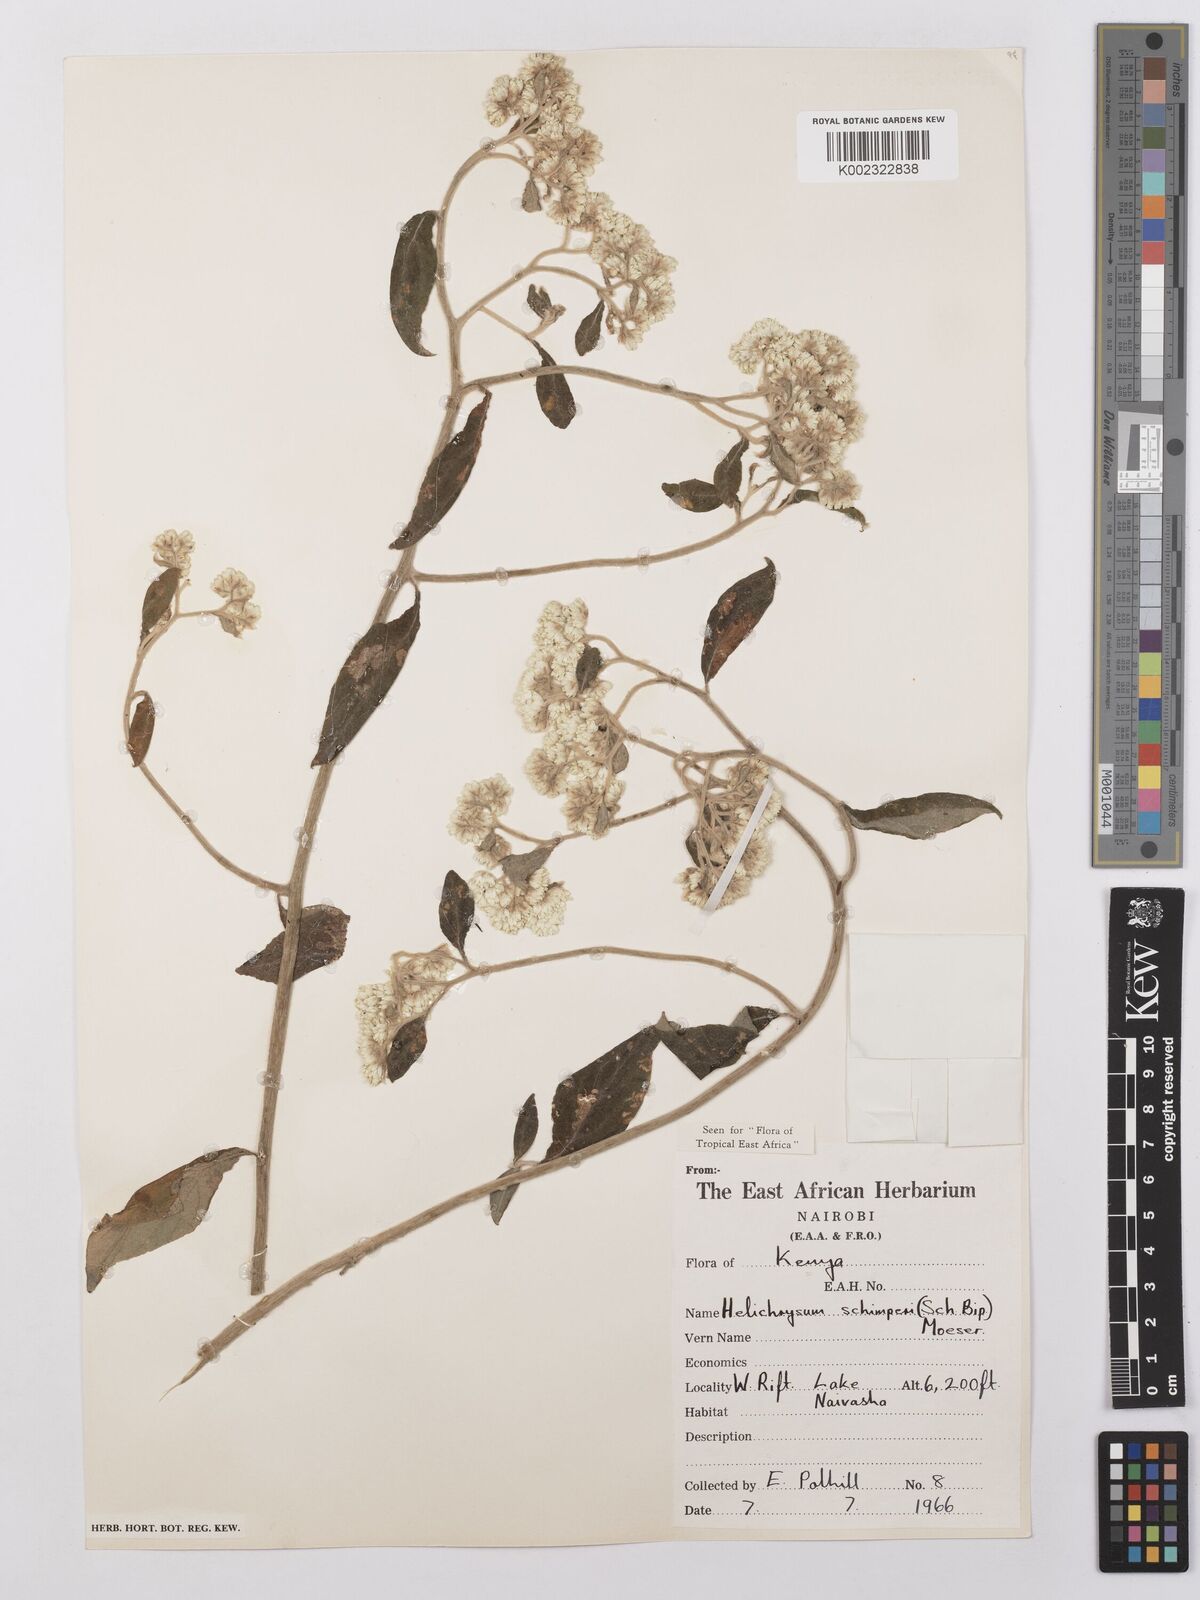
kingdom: Plantae
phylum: Tracheophyta
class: Magnoliopsida
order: Asterales
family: Asteraceae
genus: Helichrysum
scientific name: Helichrysum schimperi
